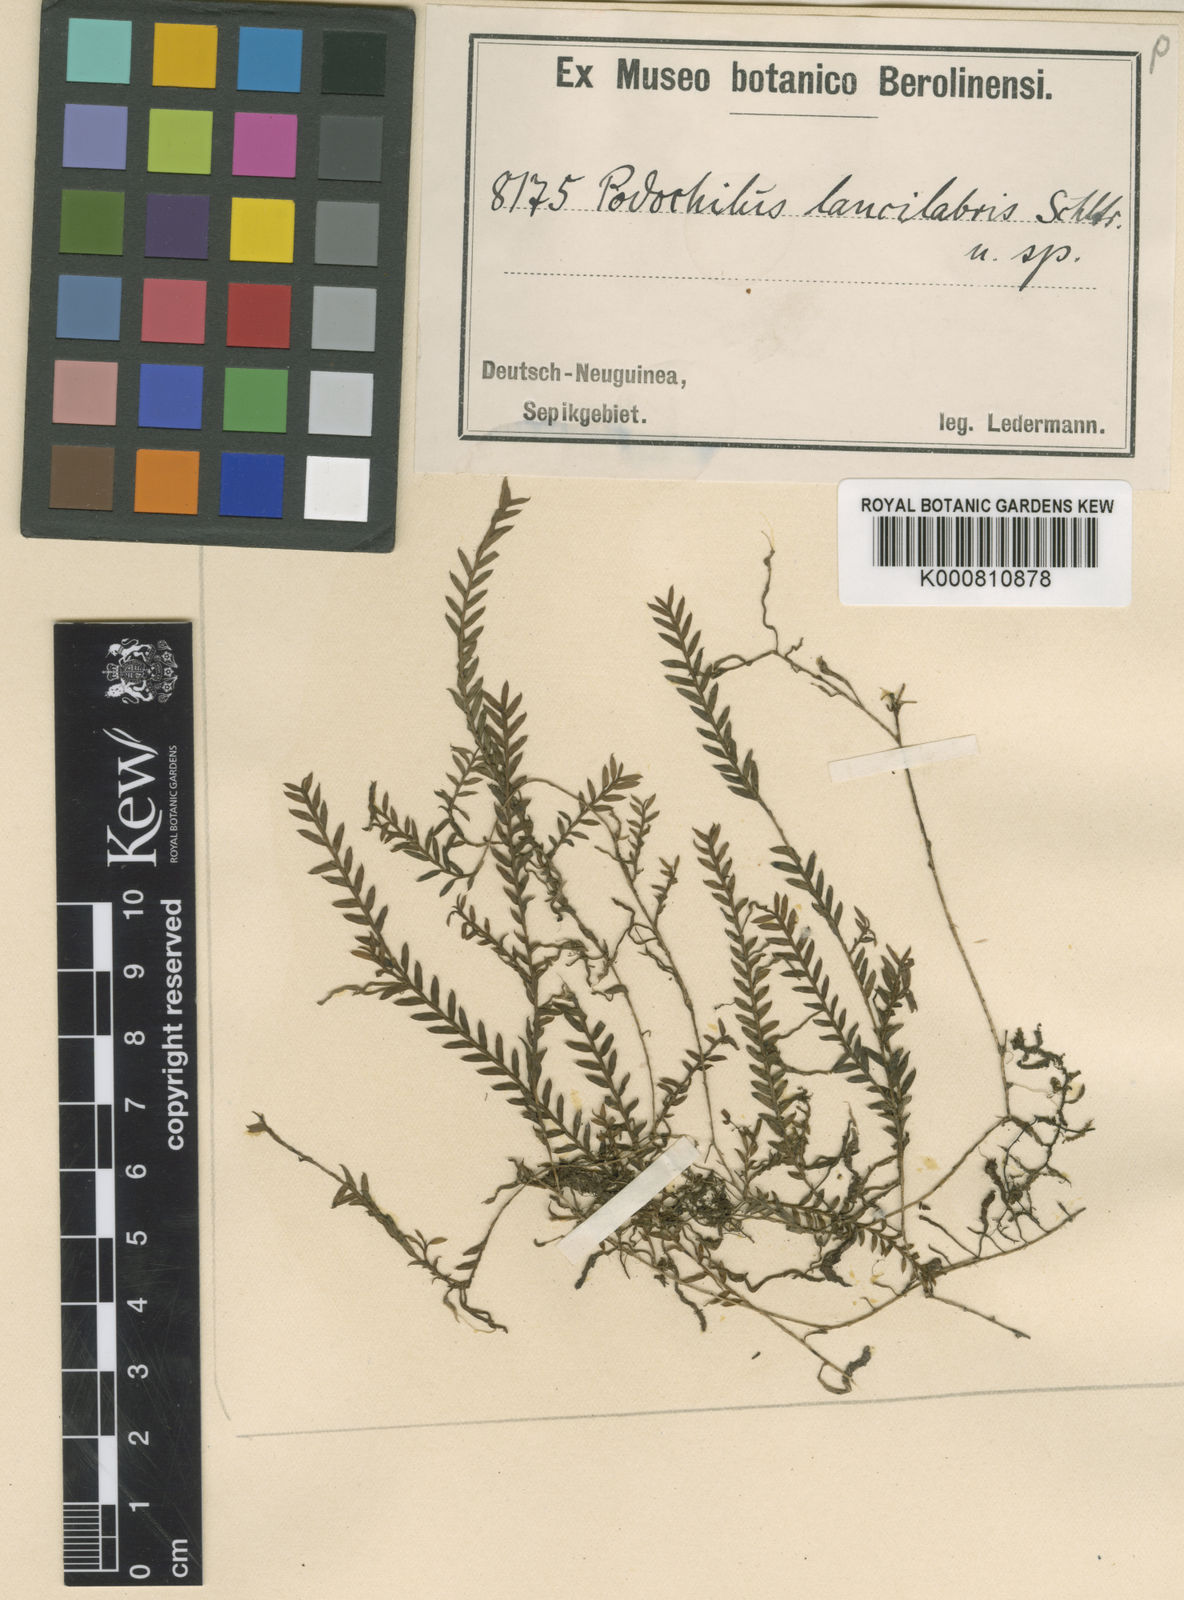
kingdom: Plantae
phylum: Tracheophyta
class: Liliopsida
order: Asparagales
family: Orchidaceae
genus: Podochilus
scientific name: Podochilus lancilabris
